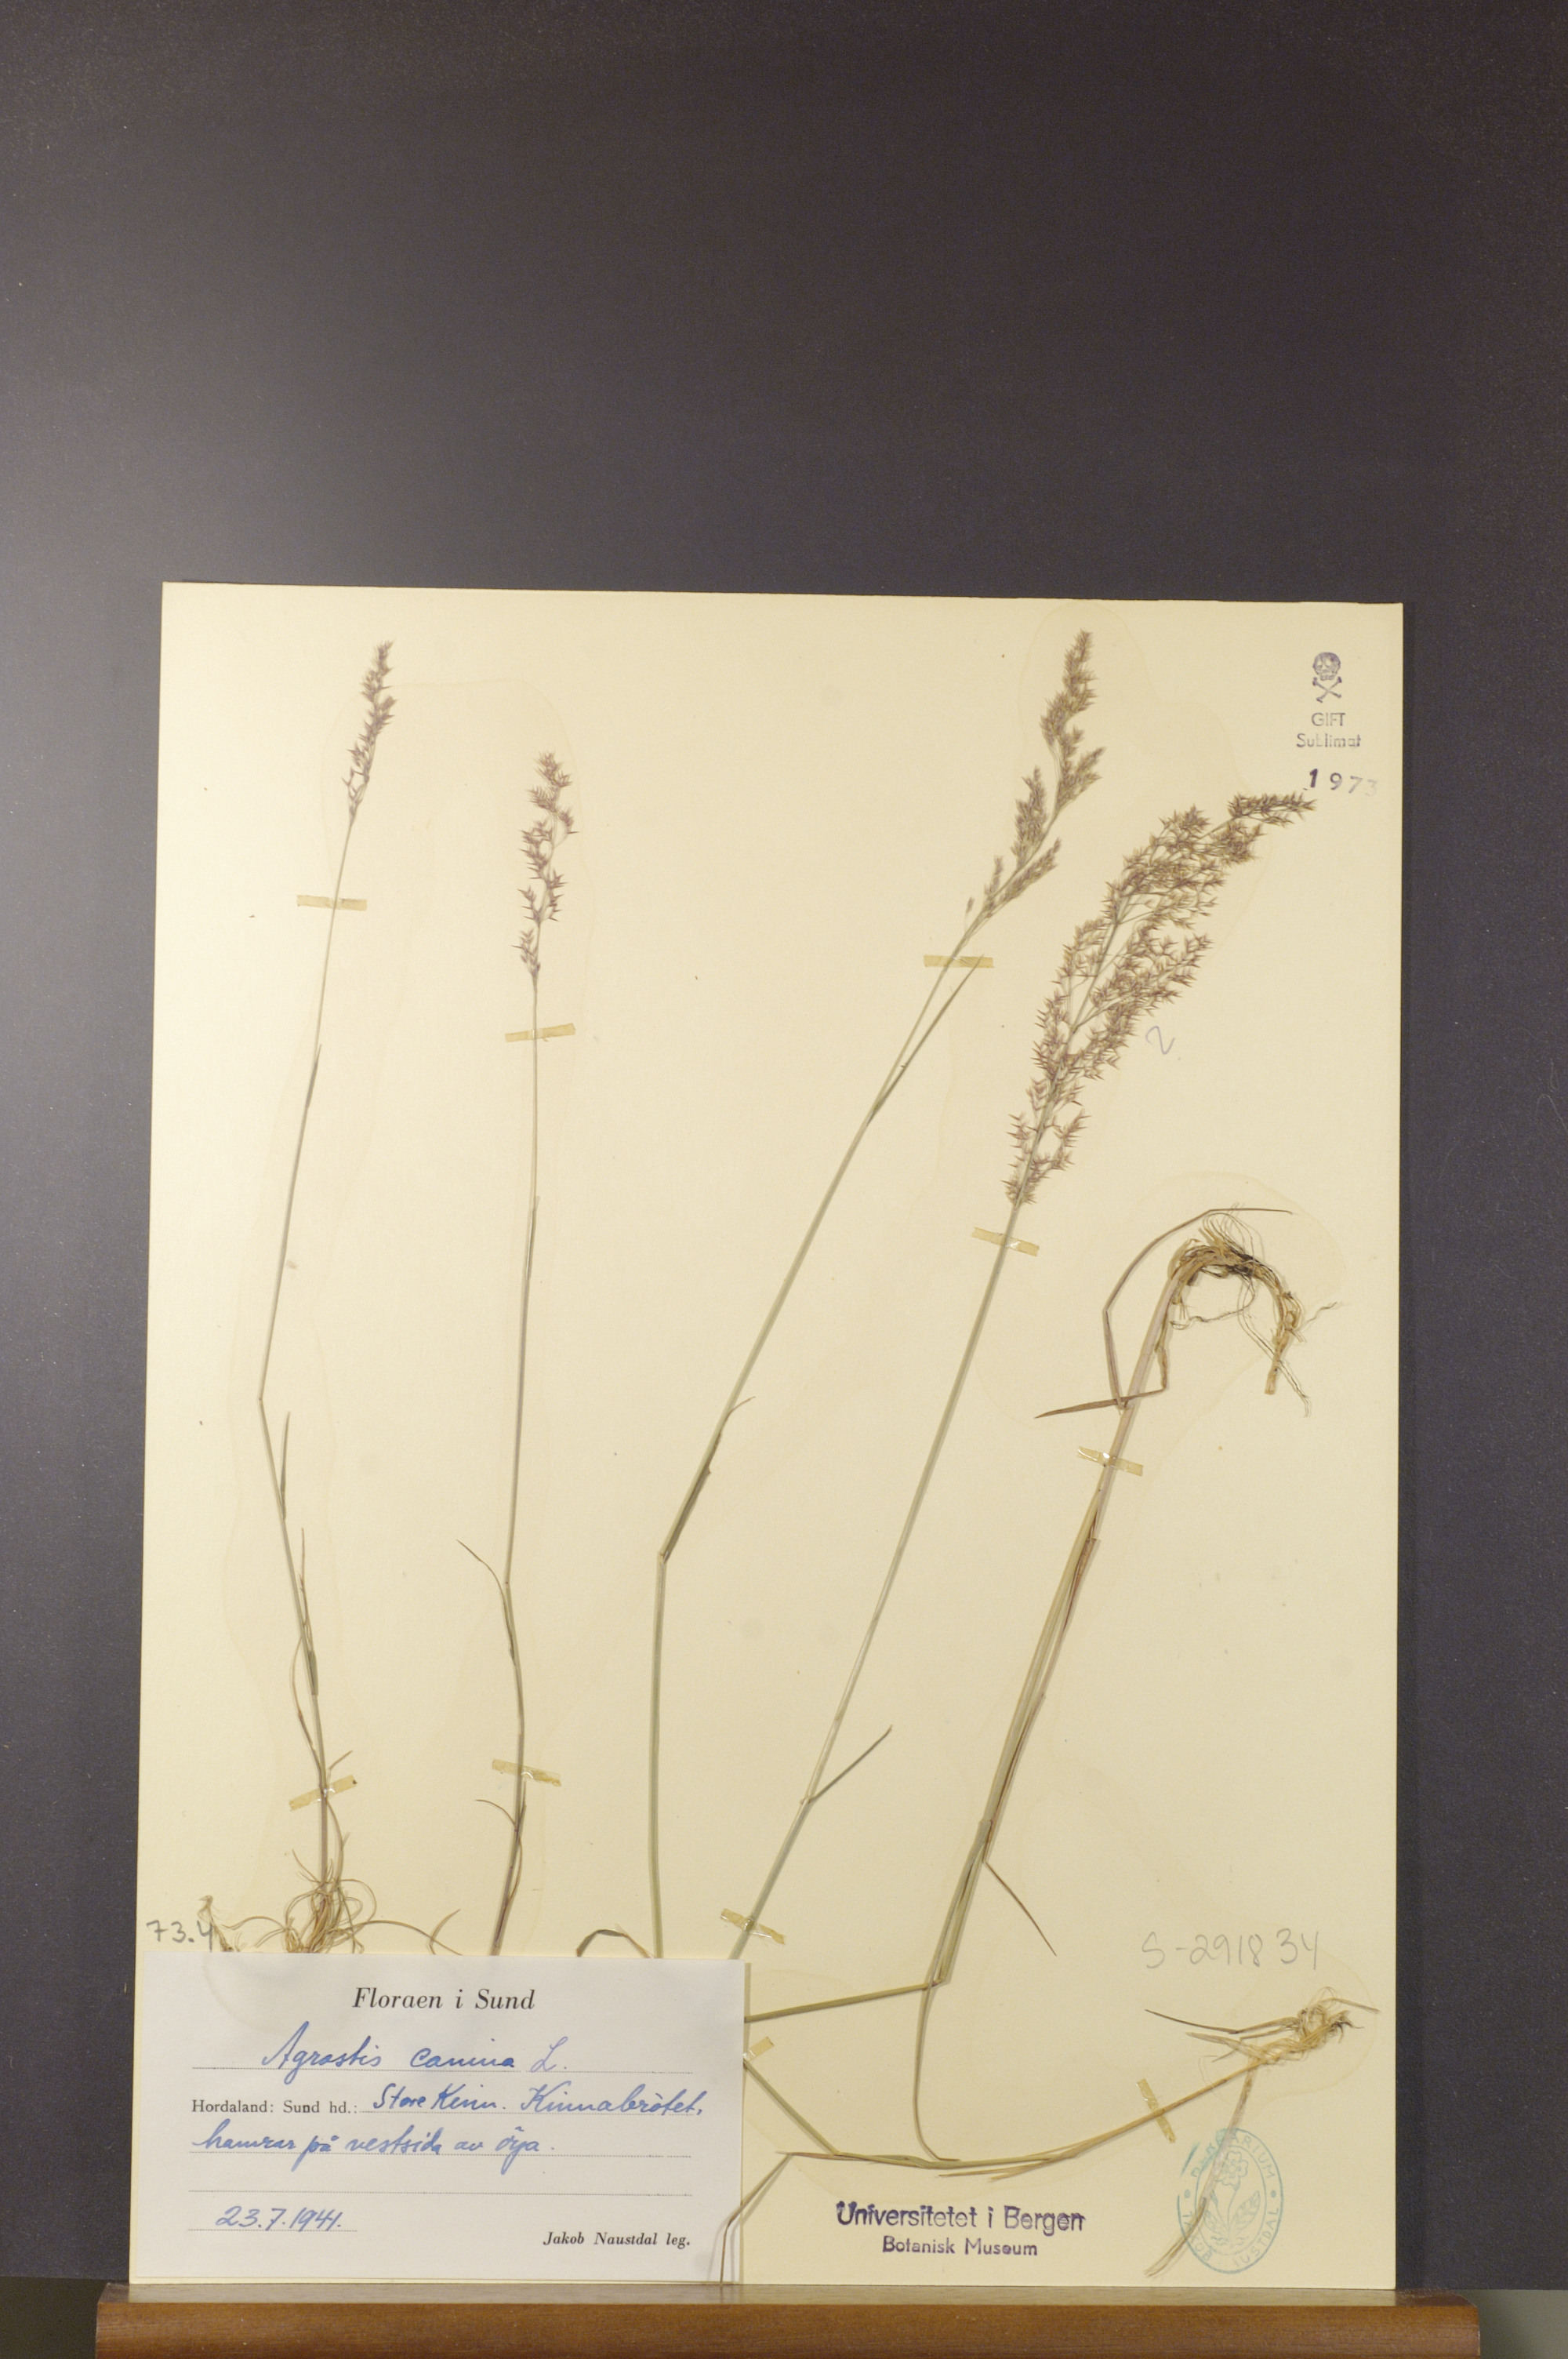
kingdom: Plantae
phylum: Tracheophyta
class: Liliopsida
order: Poales
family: Poaceae
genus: Agrostis
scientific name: Agrostis canina
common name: Velvet bent
